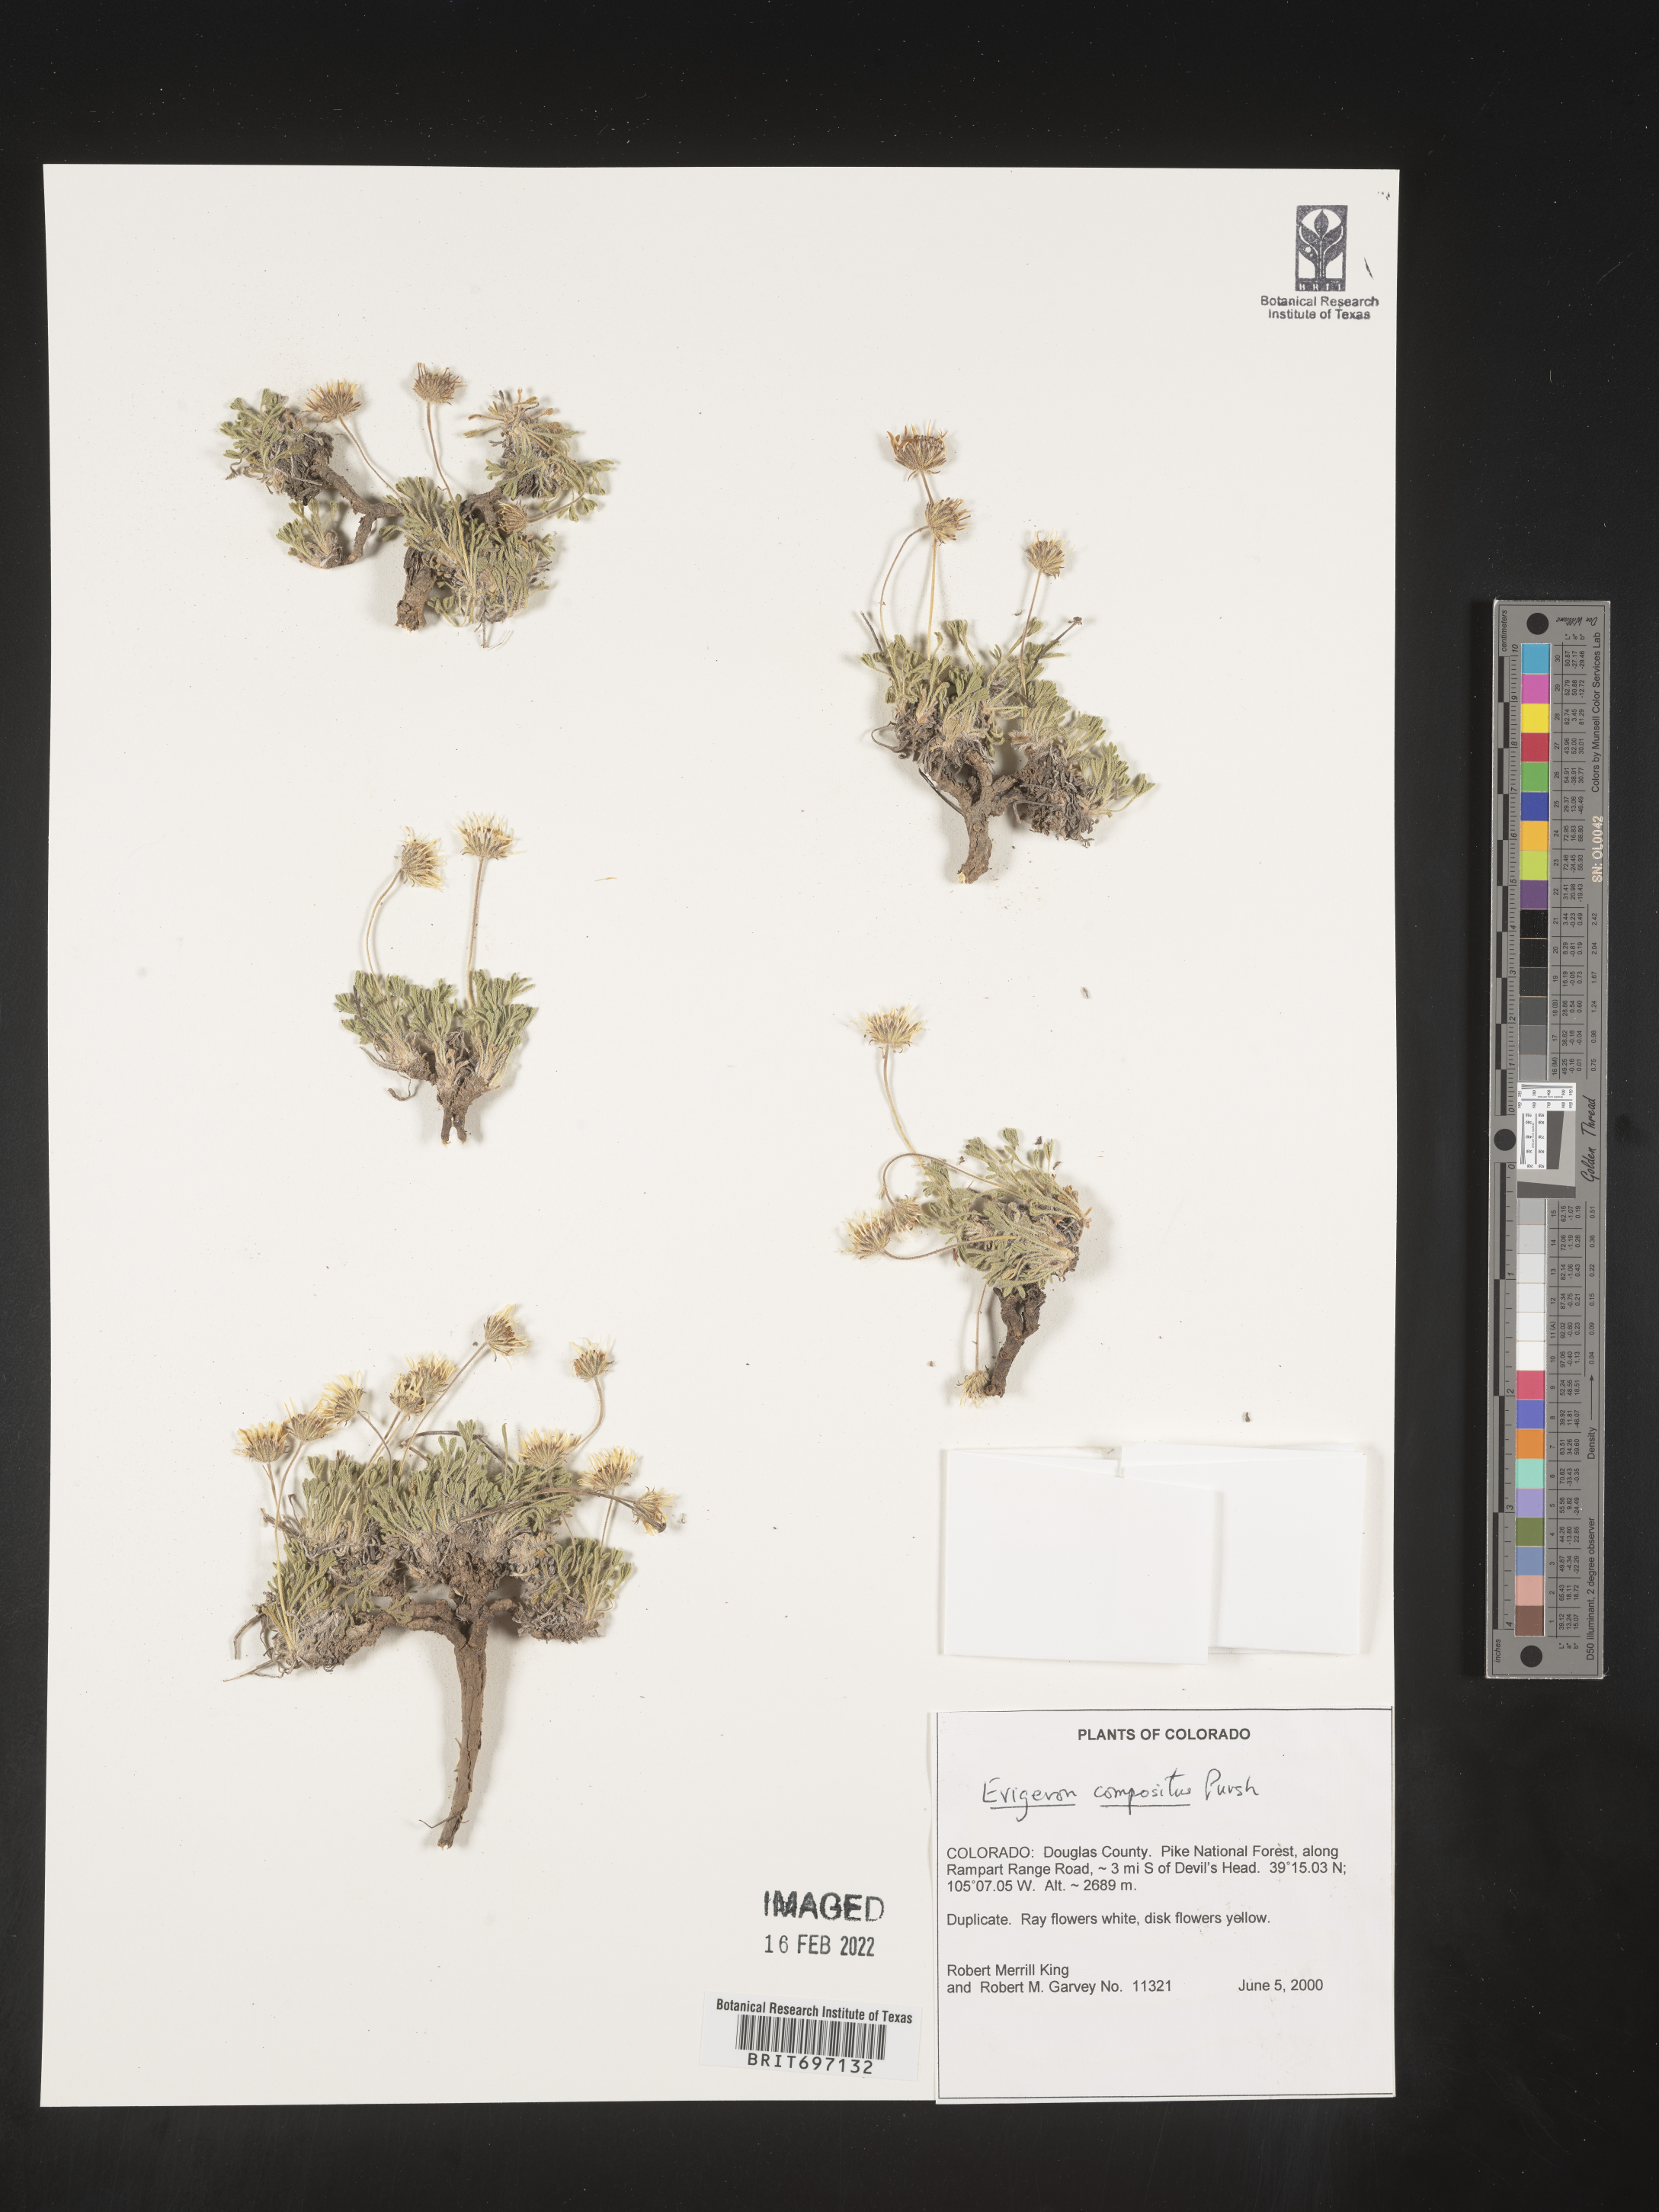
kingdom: Plantae
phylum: Tracheophyta
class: Magnoliopsida
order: Asterales
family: Asteraceae
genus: Erigeron
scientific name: Erigeron compositus
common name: Dwarf mountain fleabane
